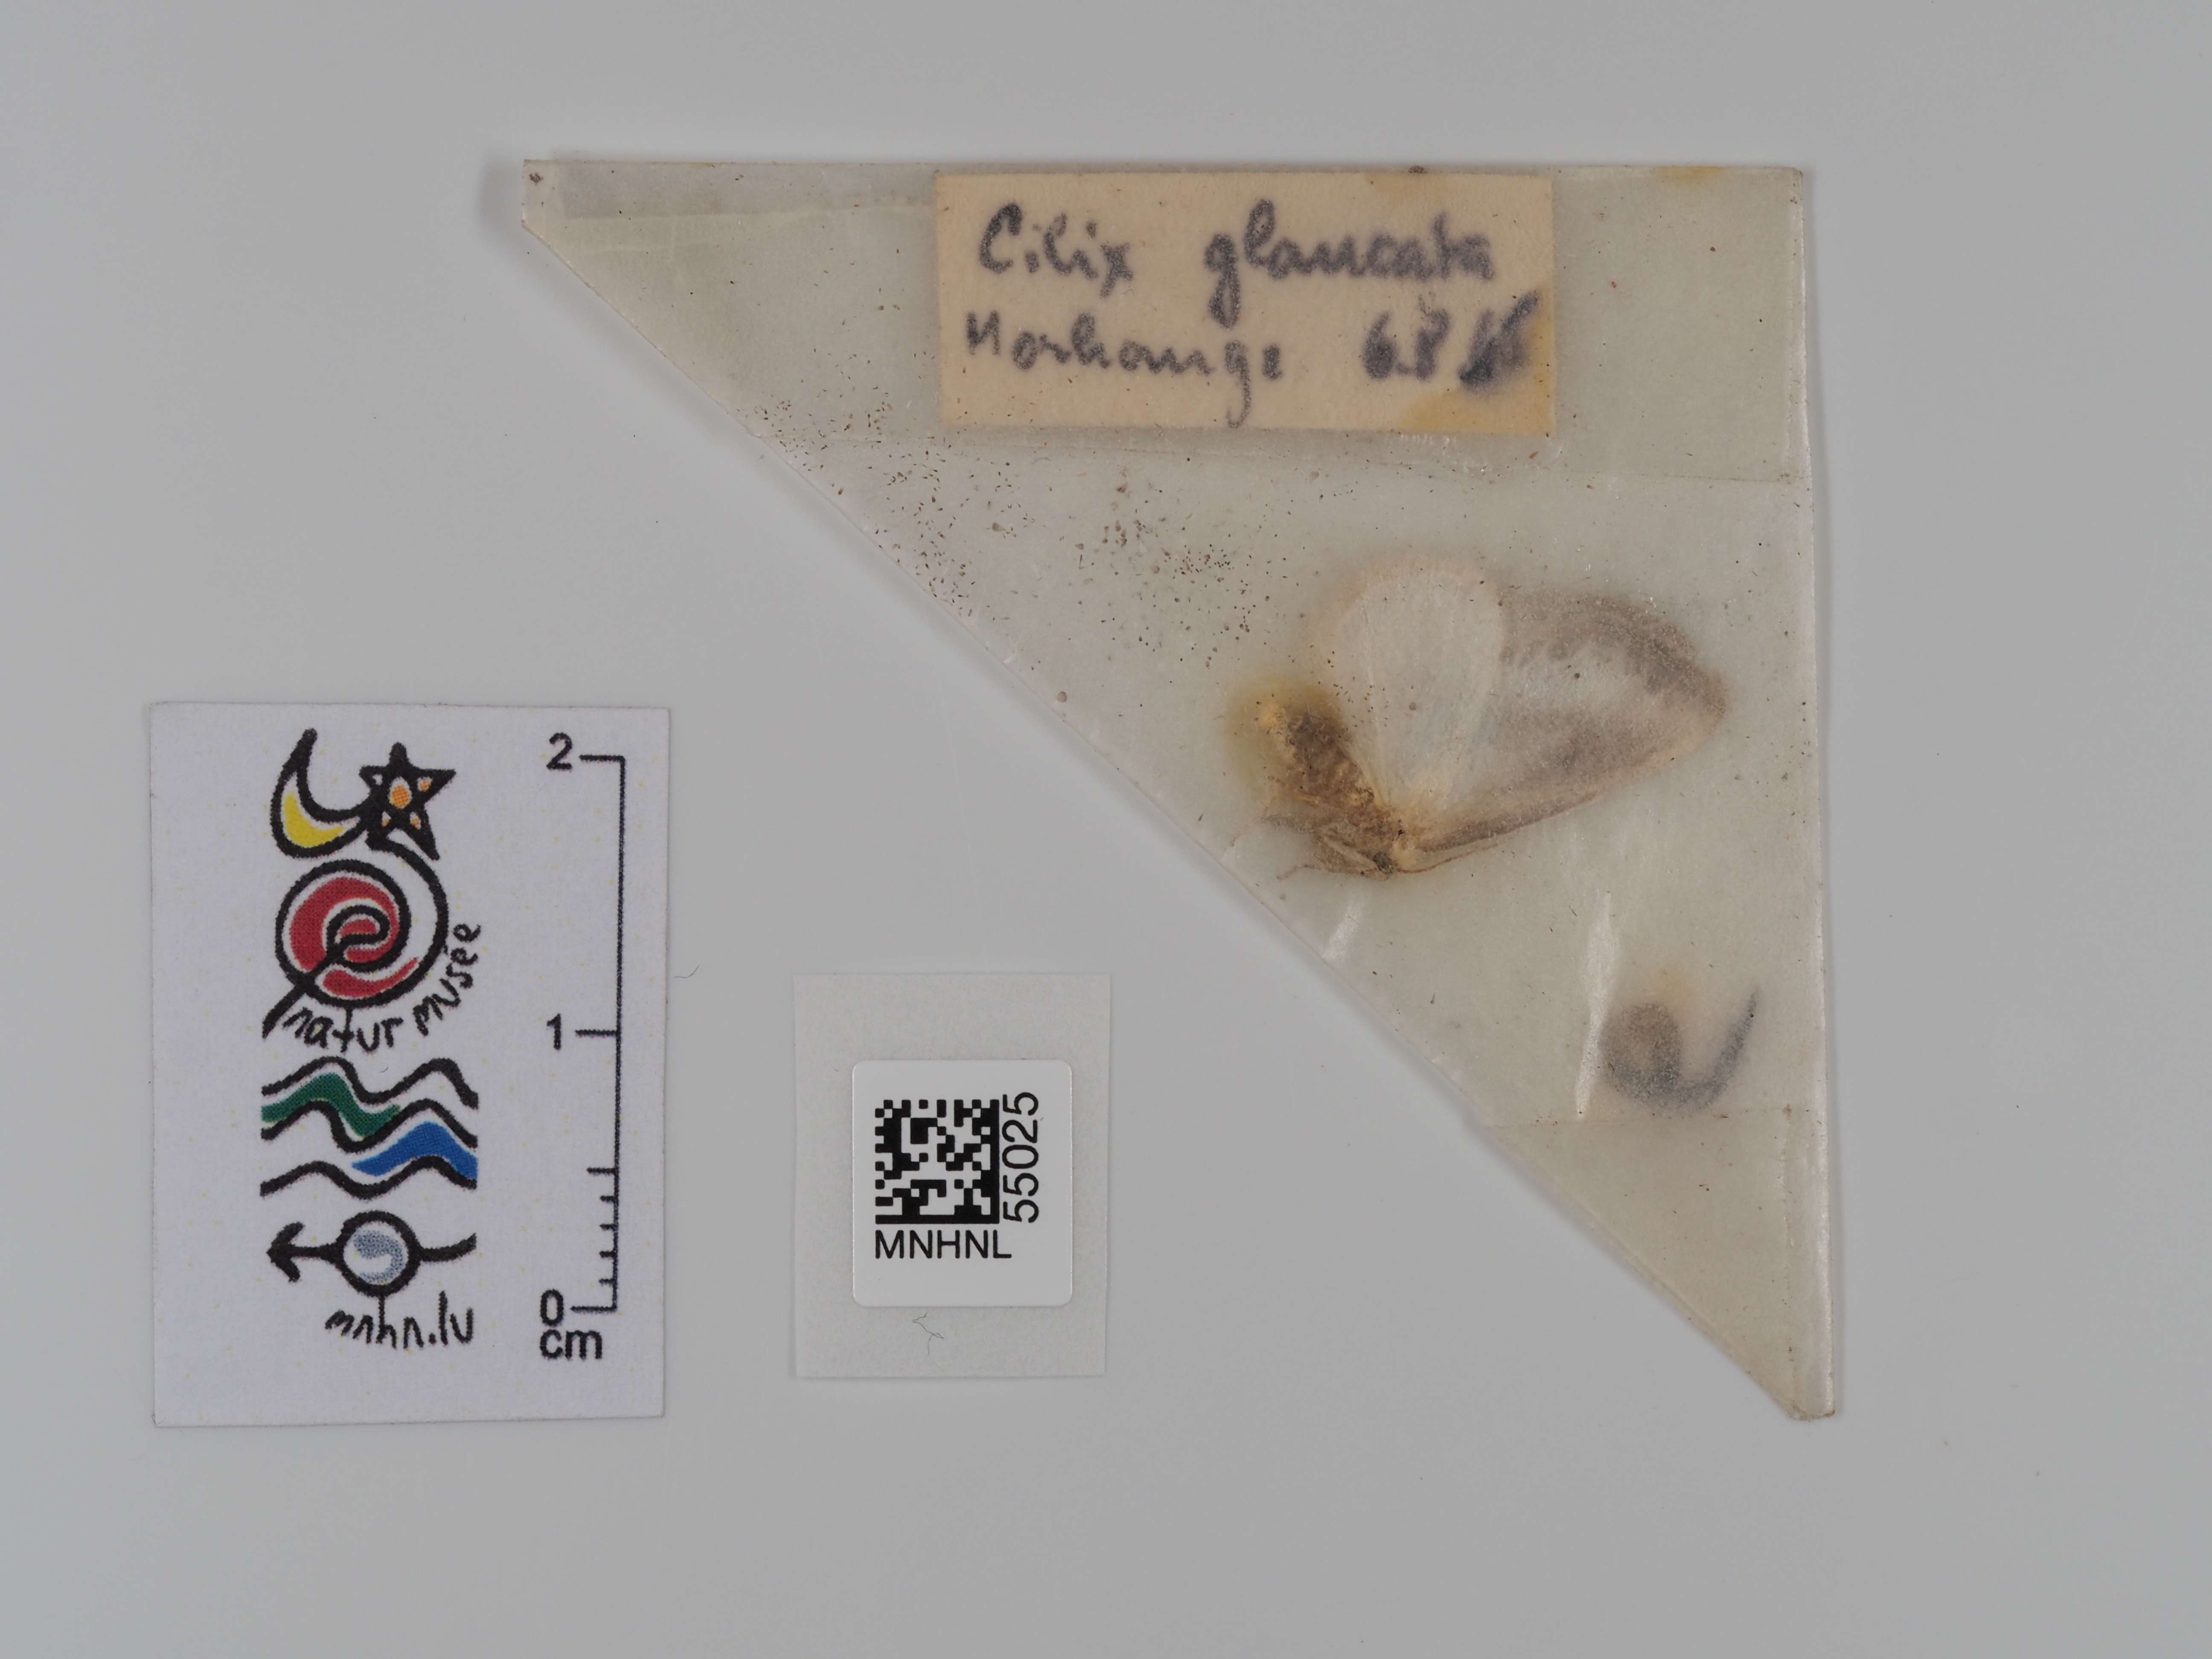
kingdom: Animalia
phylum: Arthropoda
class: Insecta
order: Lepidoptera
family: Drepanidae
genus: Cilix
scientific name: Cilix glaucata
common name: Chinese character
